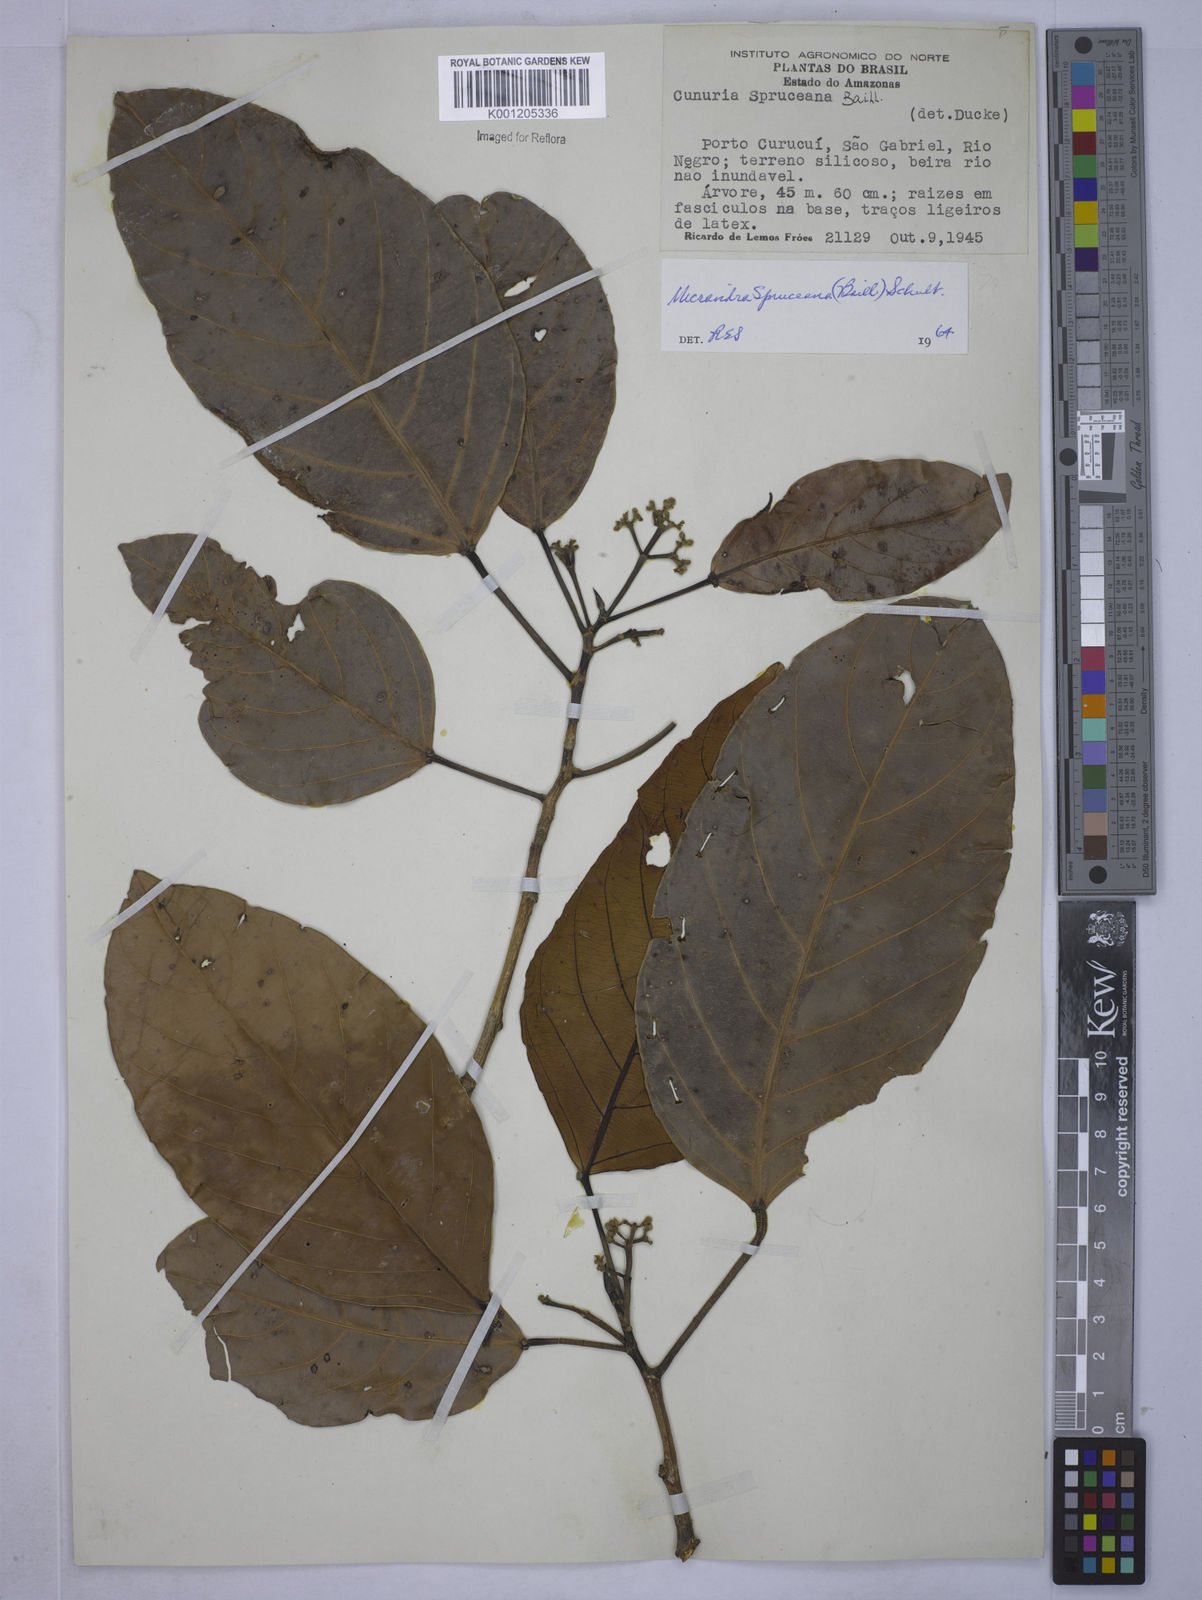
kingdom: Plantae
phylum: Tracheophyta
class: Magnoliopsida
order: Malpighiales
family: Euphorbiaceae
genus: Micrandra
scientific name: Micrandra spruceana
